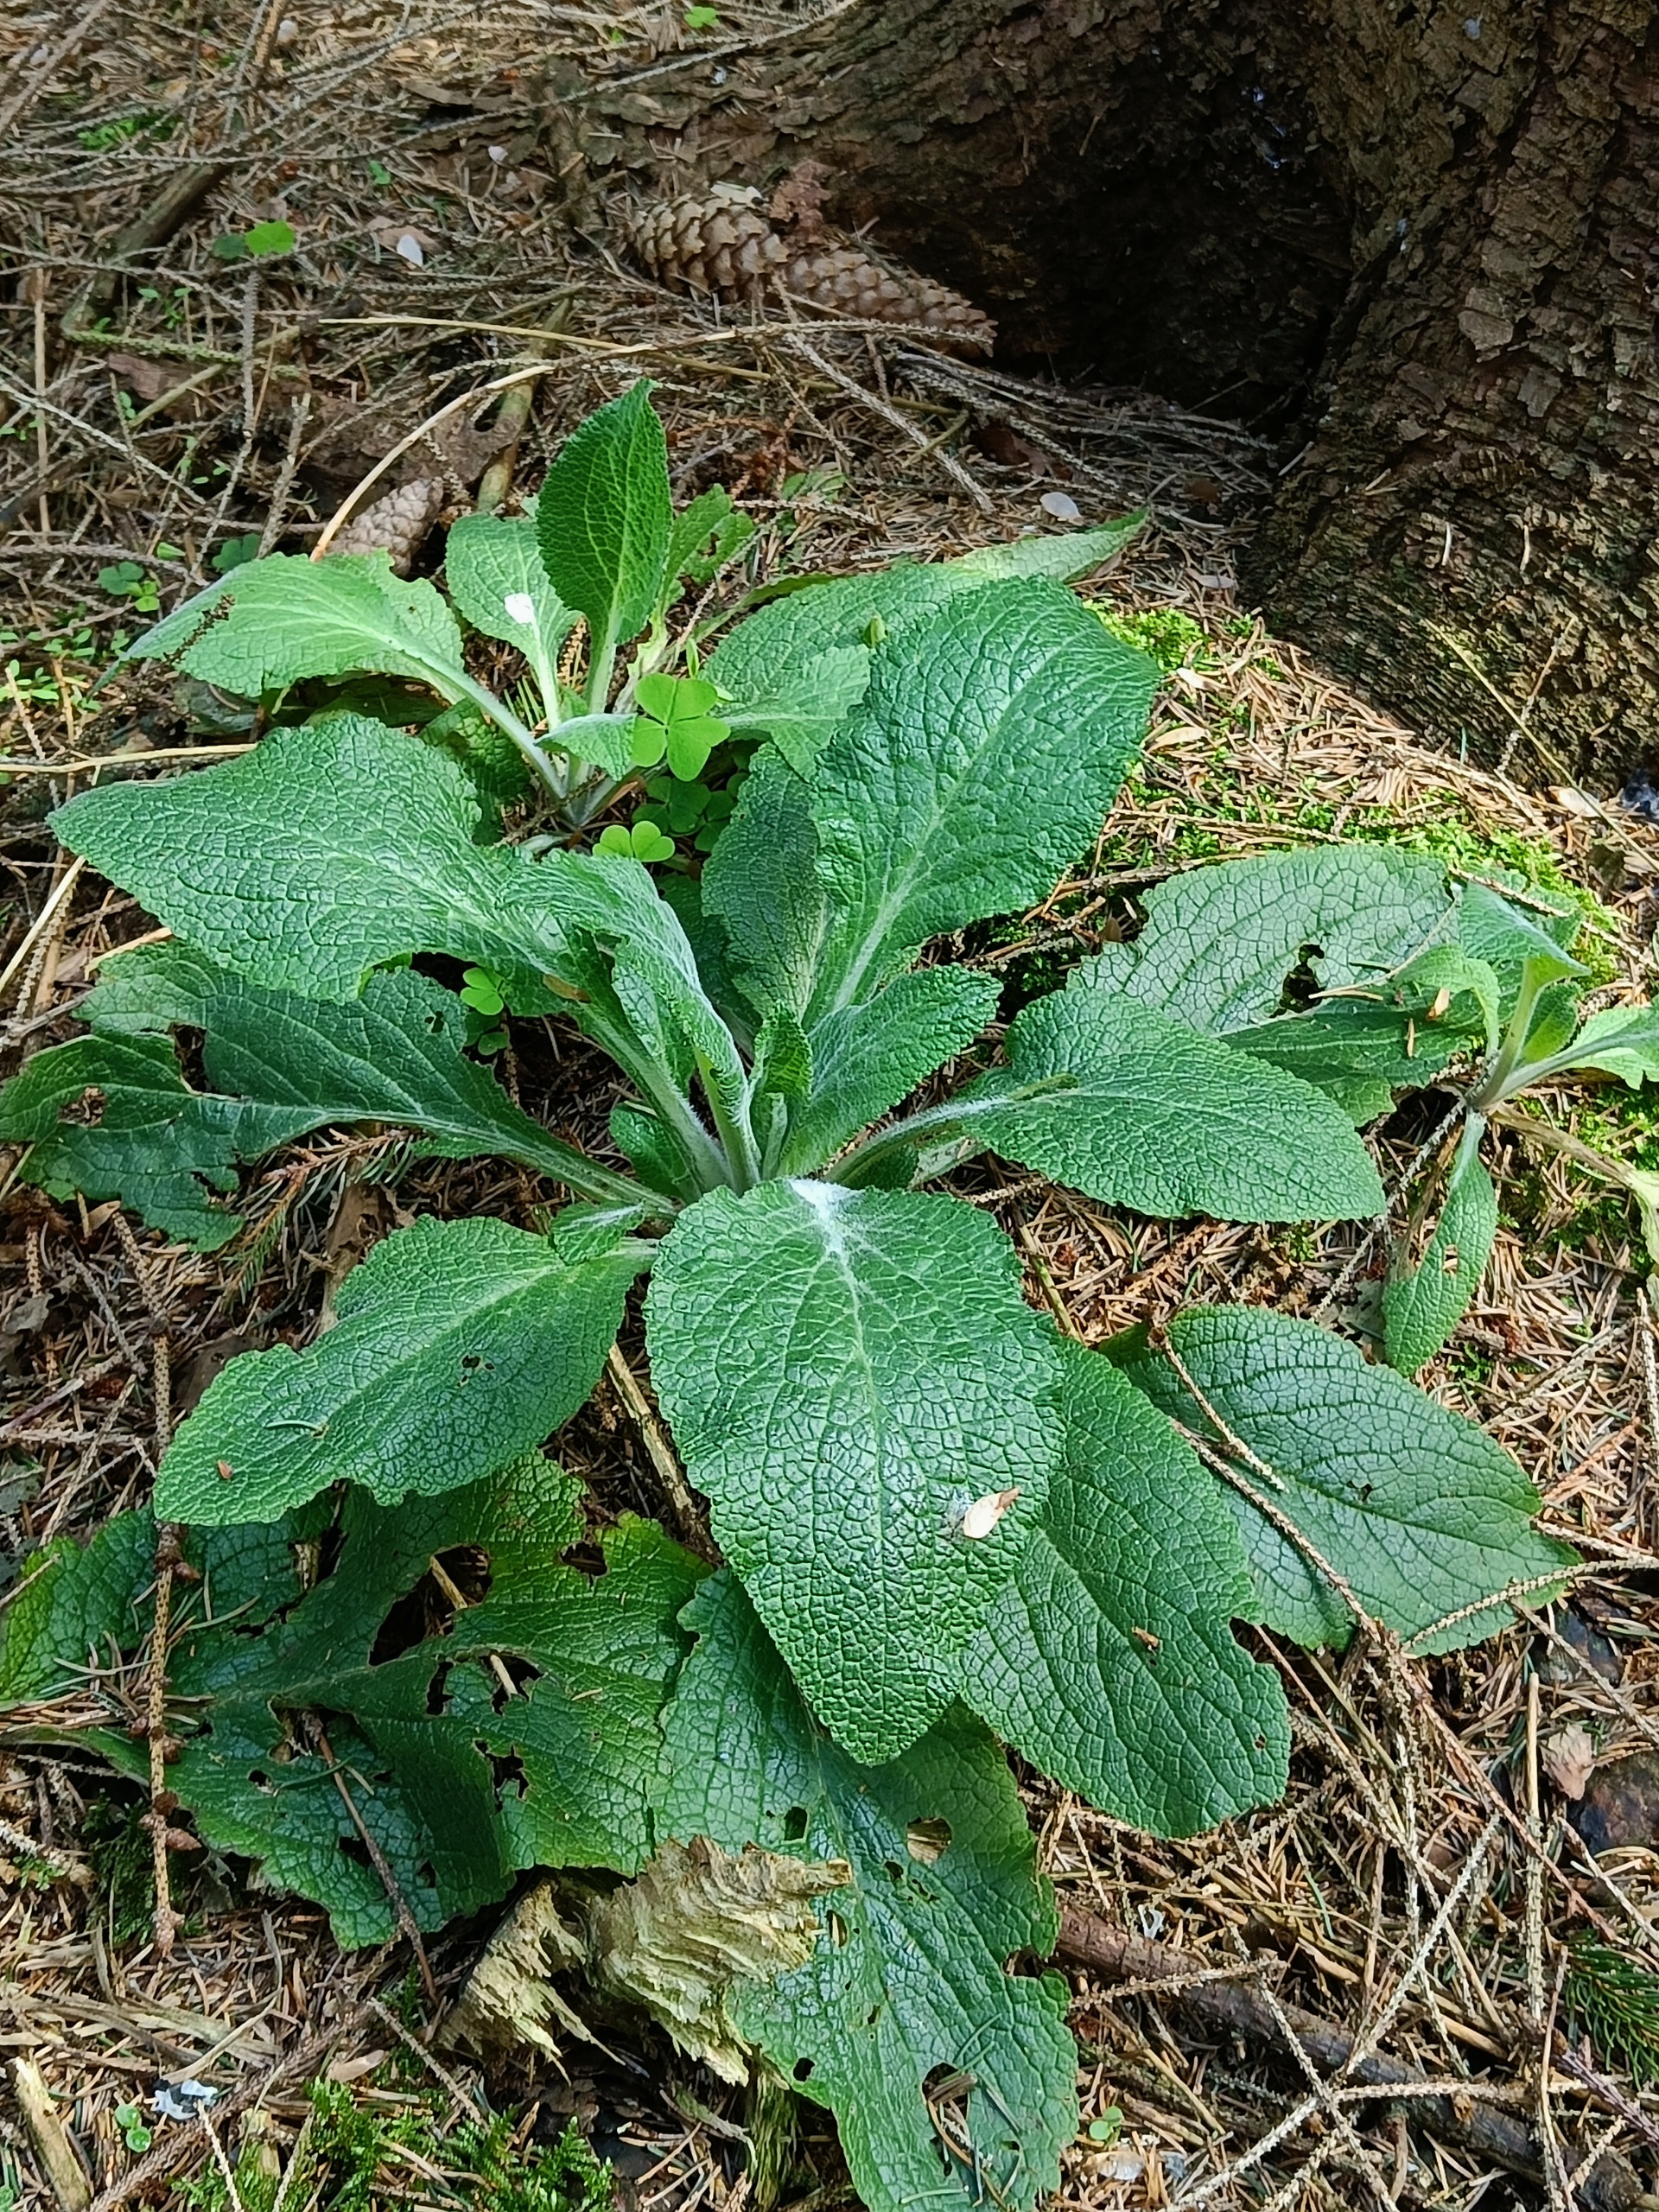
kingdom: Plantae
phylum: Tracheophyta
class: Magnoliopsida
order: Lamiales
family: Plantaginaceae
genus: Digitalis
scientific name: Digitalis purpurea
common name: Almindelig fingerbøl
